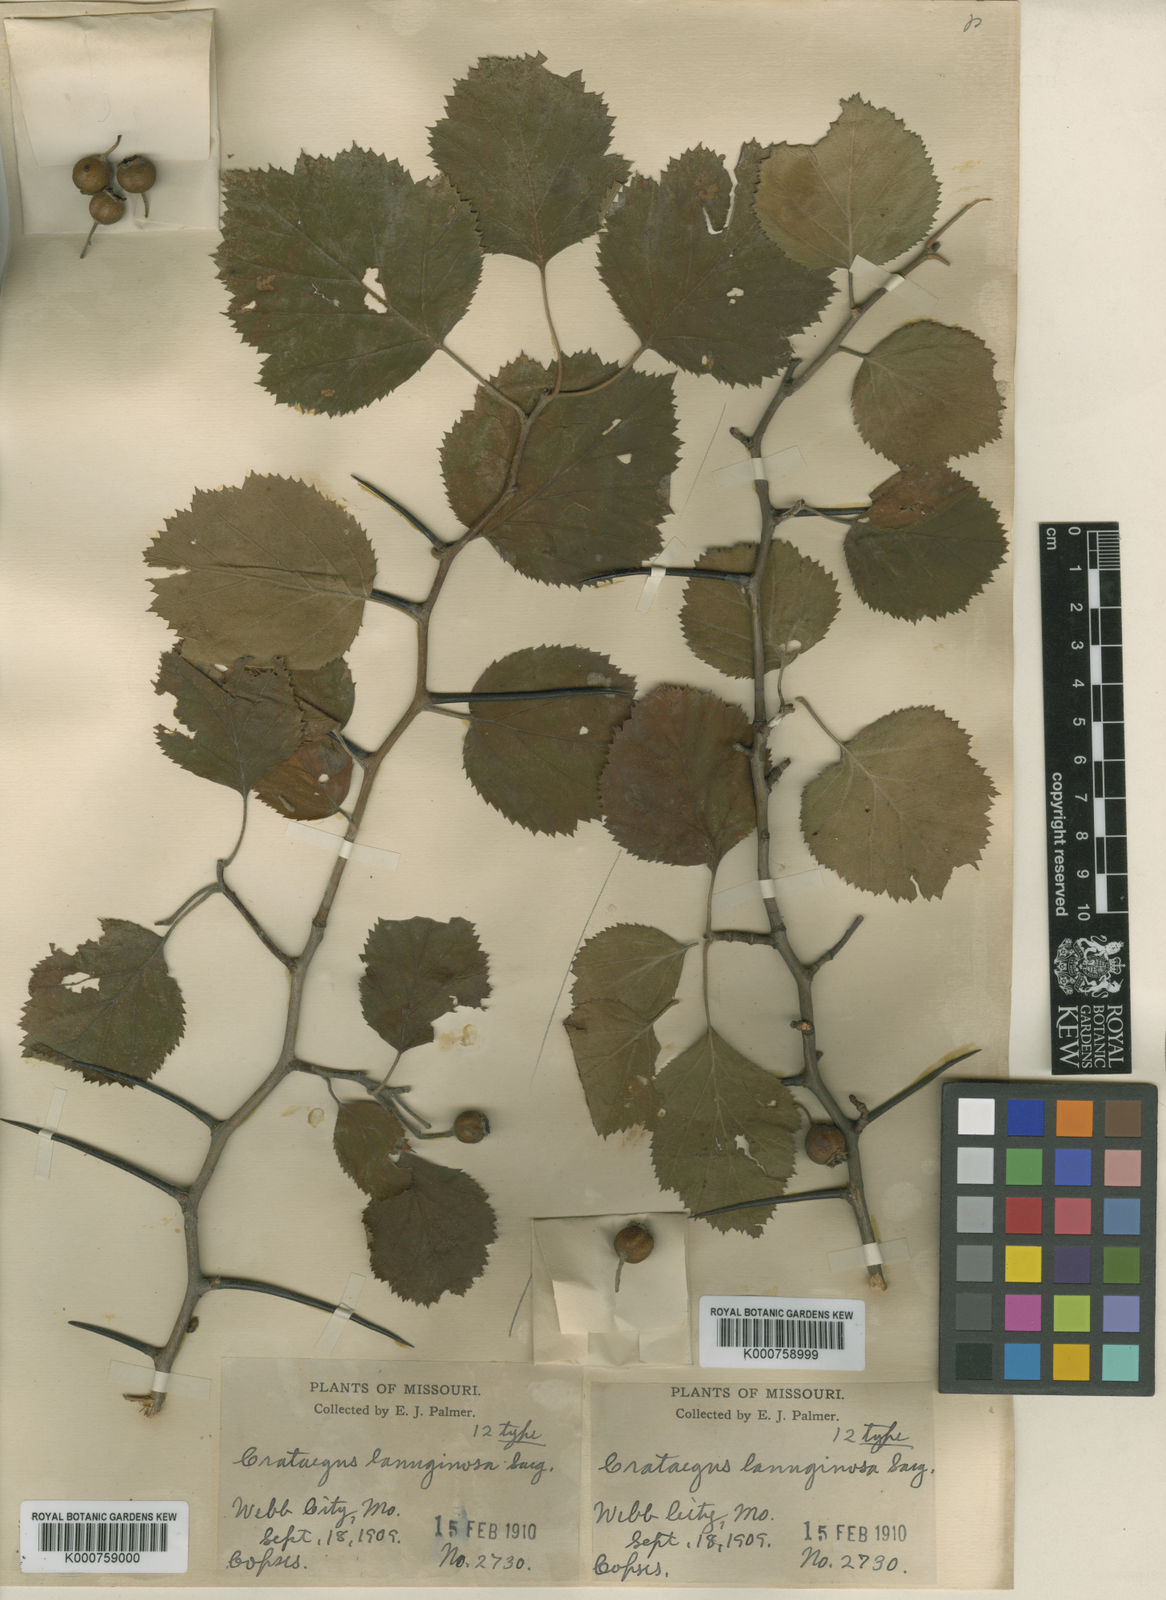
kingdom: Plantae
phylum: Tracheophyta
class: Magnoliopsida
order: Rosales
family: Rosaceae
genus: Crataegus
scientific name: Crataegus lanuginosa
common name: Woolly hawthorn
